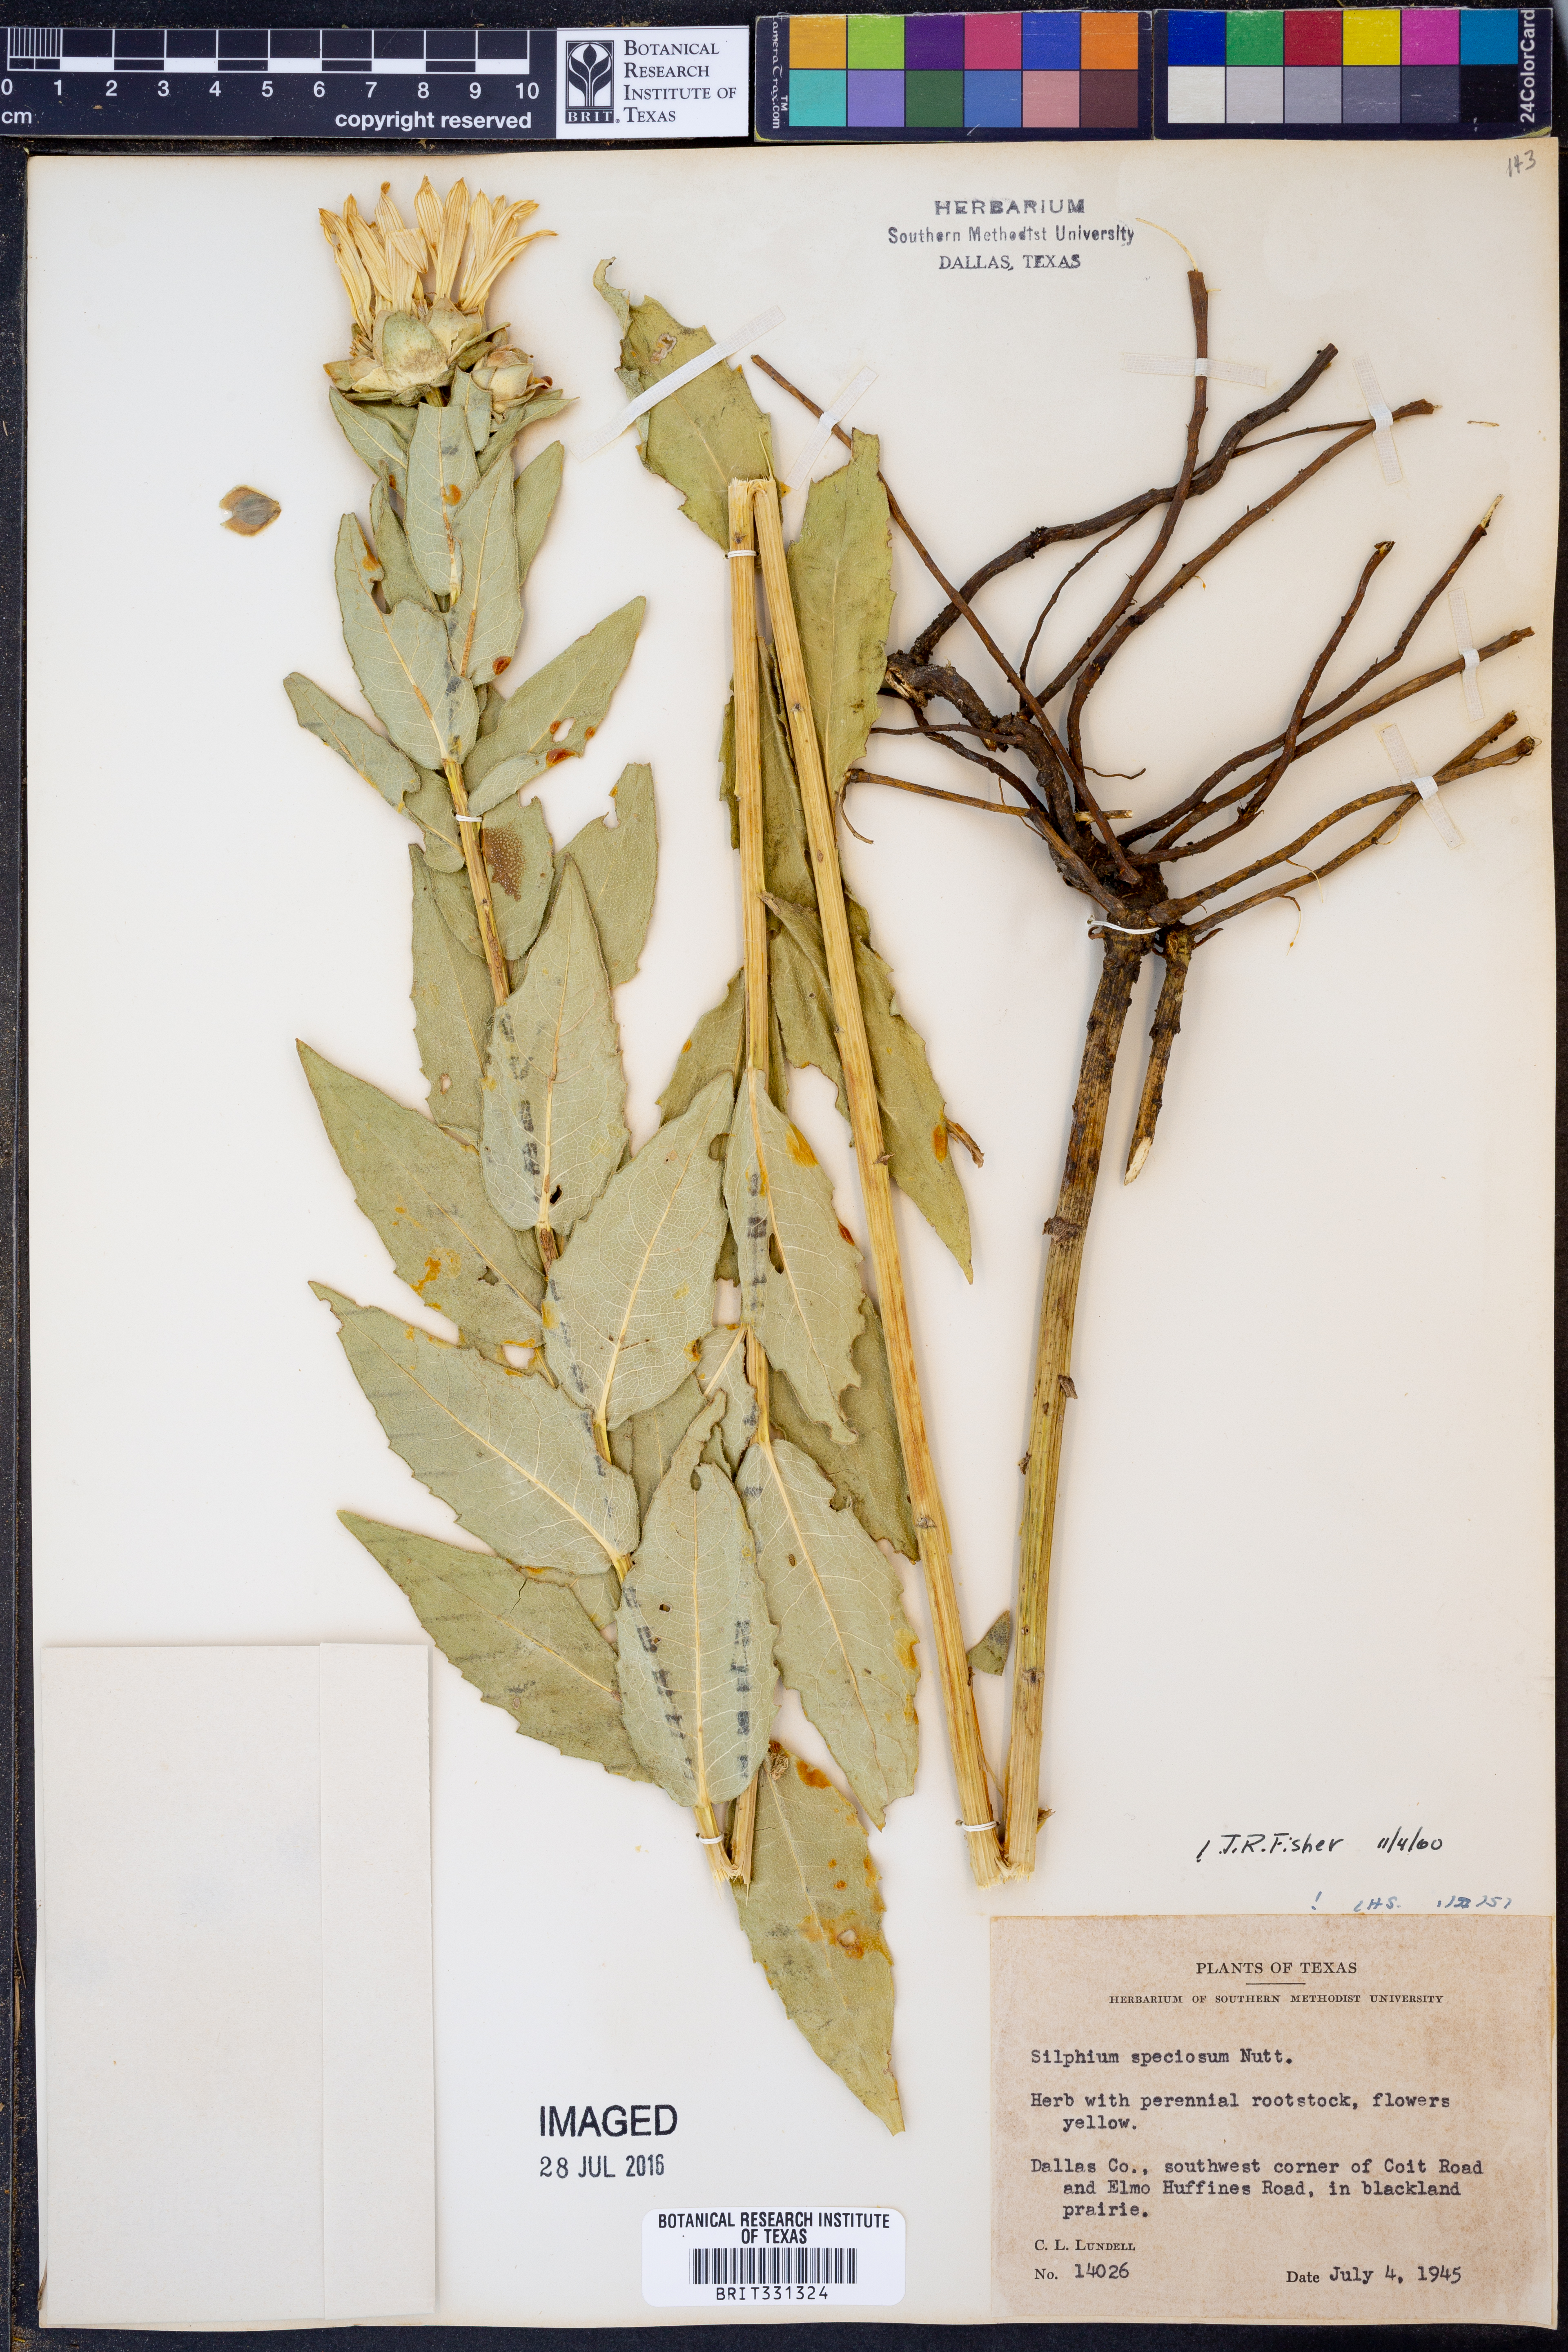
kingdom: Plantae
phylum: Tracheophyta
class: Magnoliopsida
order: Asterales
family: Asteraceae
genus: Silphium
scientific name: Silphium integrifolium
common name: Whole-leaf rosinweed
